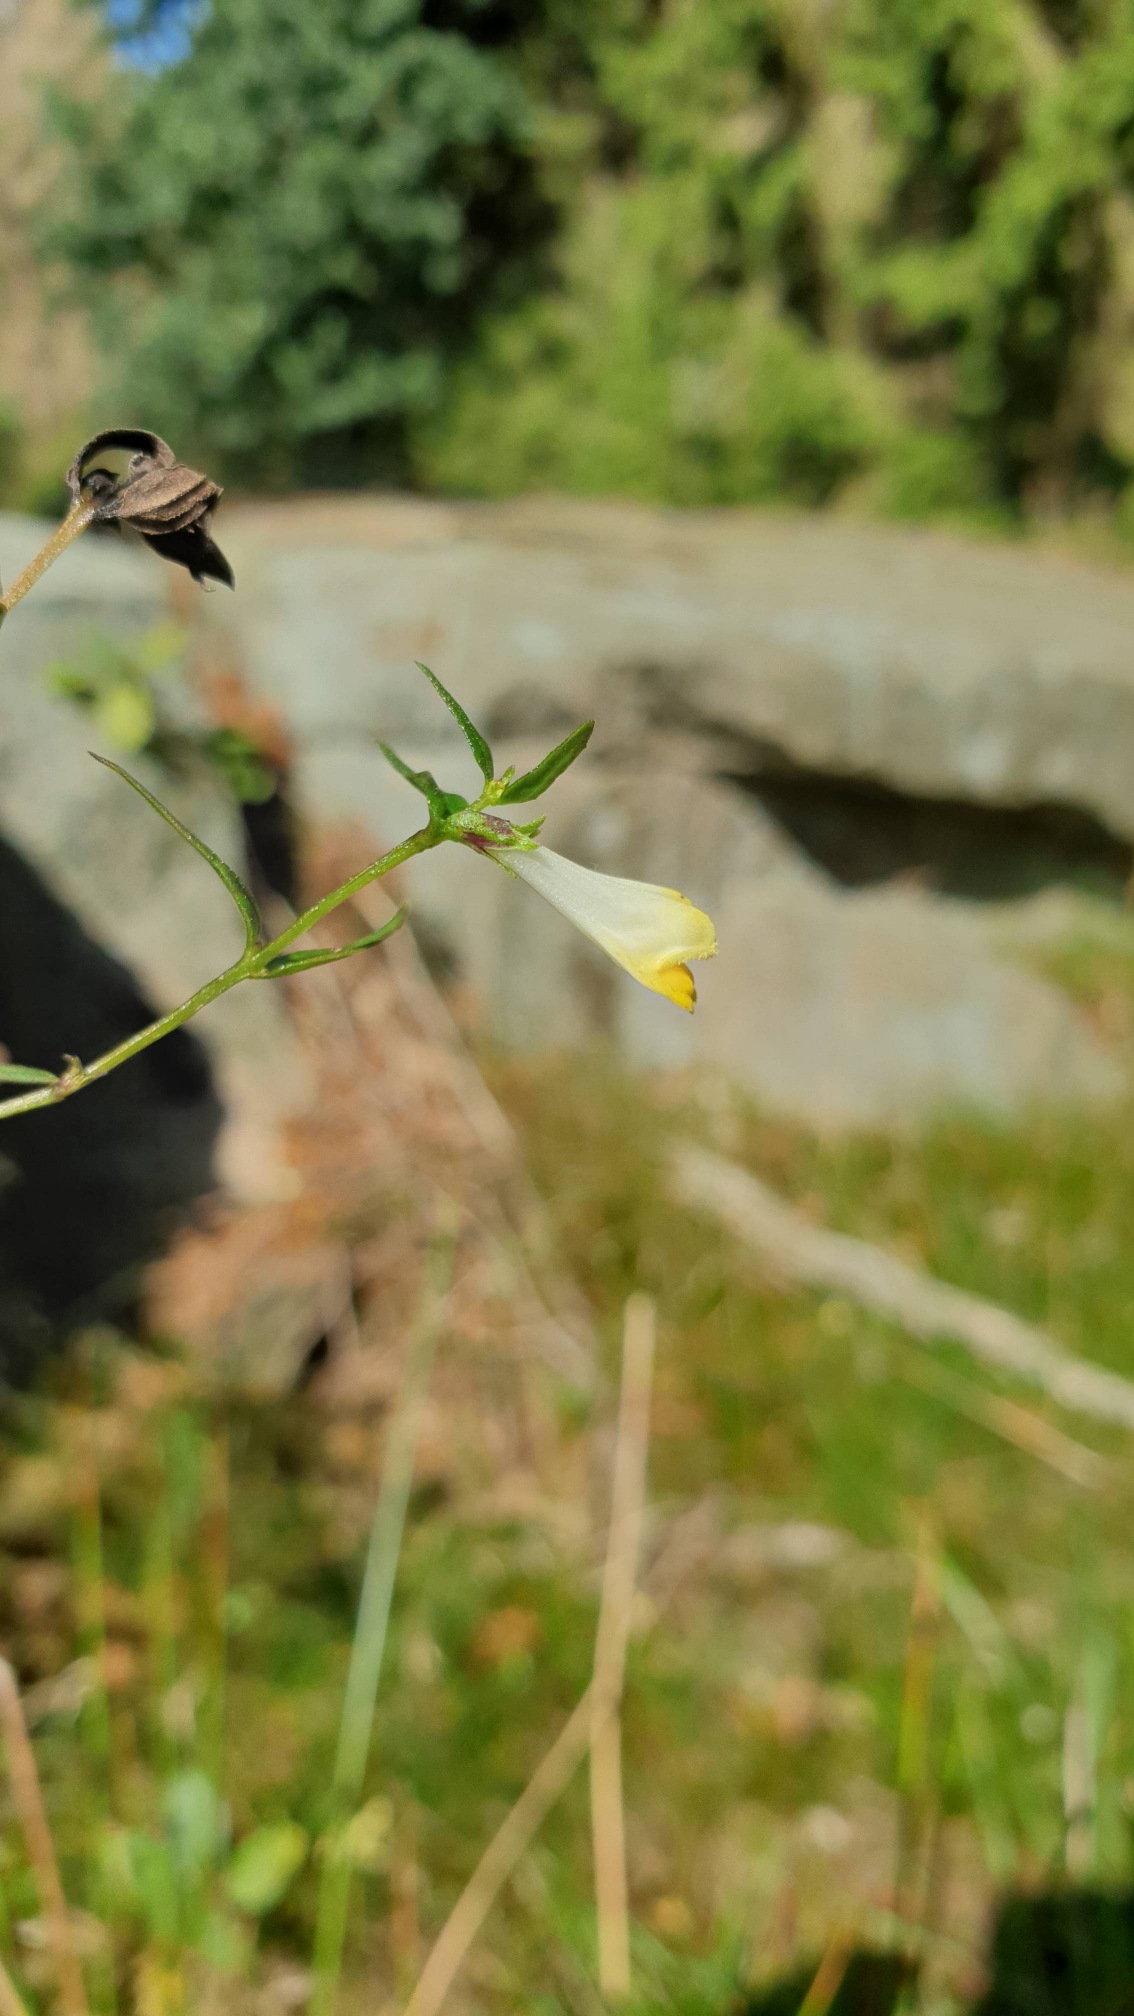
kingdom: Plantae
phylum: Tracheophyta
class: Magnoliopsida
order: Lamiales
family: Orobanchaceae
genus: Melampyrum
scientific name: Melampyrum pratense
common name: Almindelig kohvede
